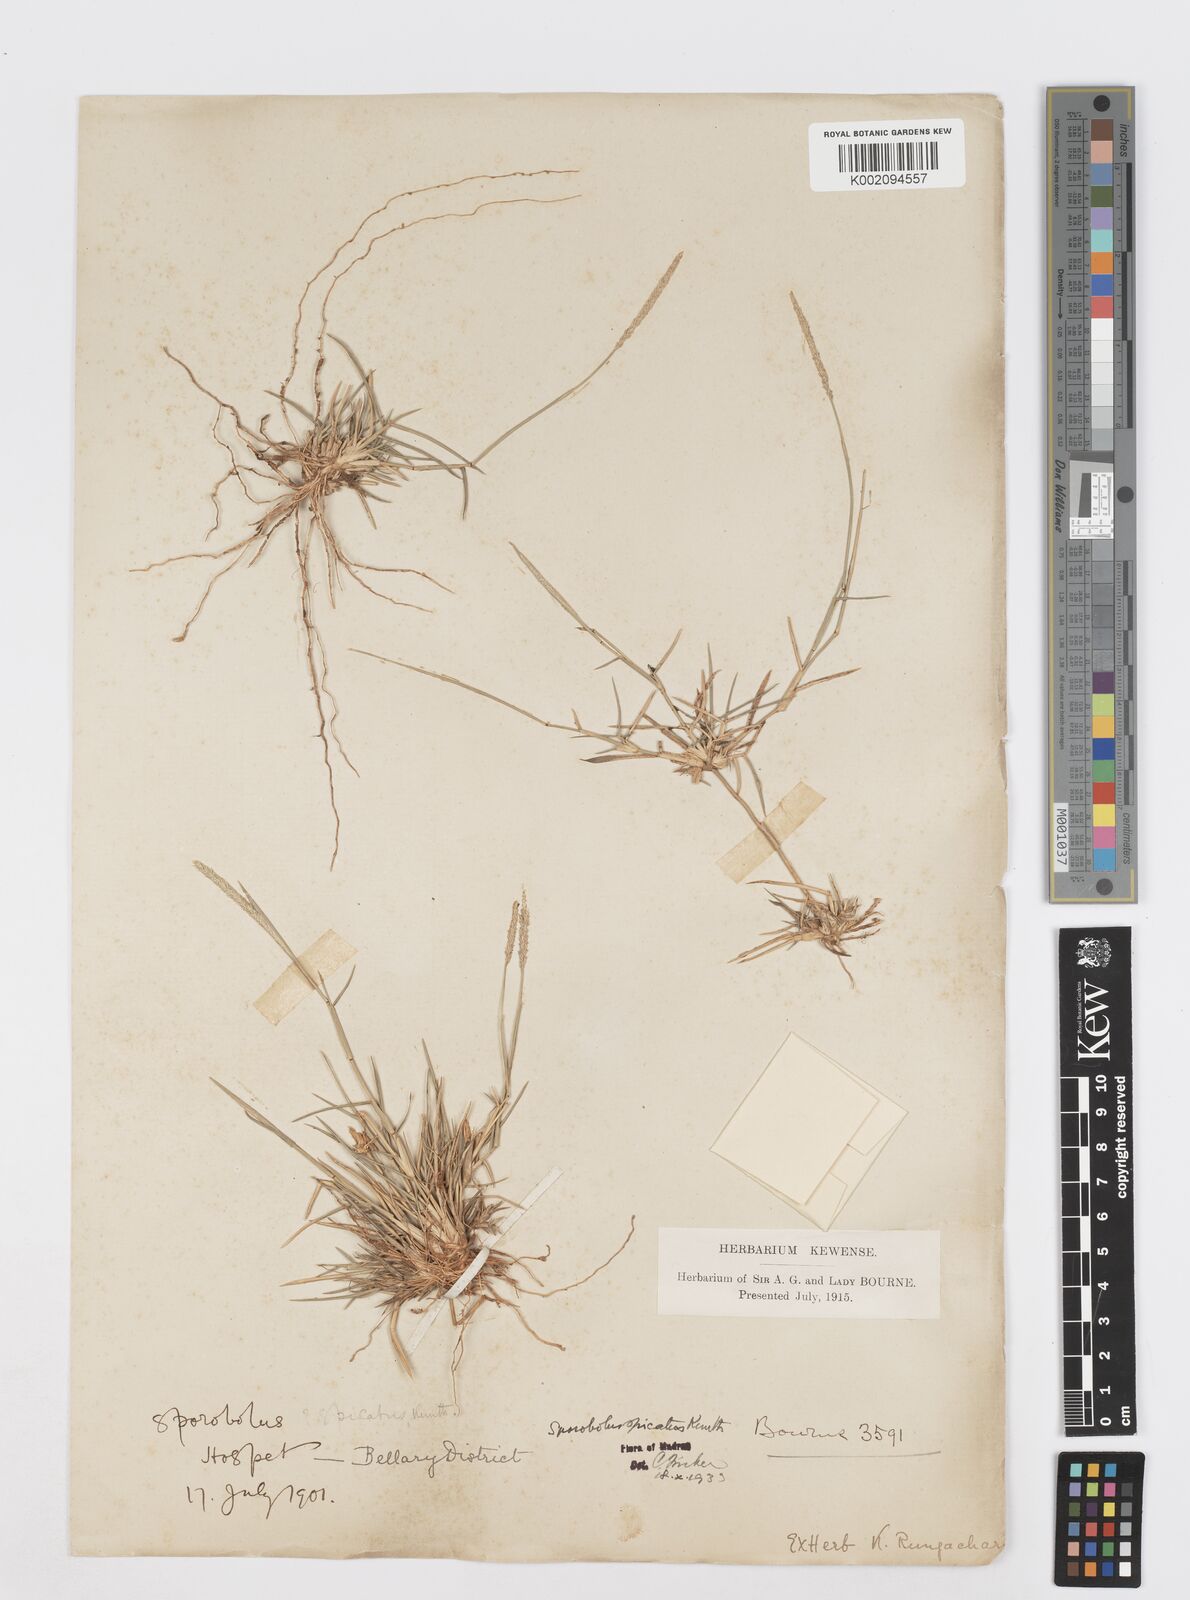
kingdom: Plantae
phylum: Tracheophyta
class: Liliopsida
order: Poales
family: Poaceae
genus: Sporobolus
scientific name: Sporobolus spicatus
